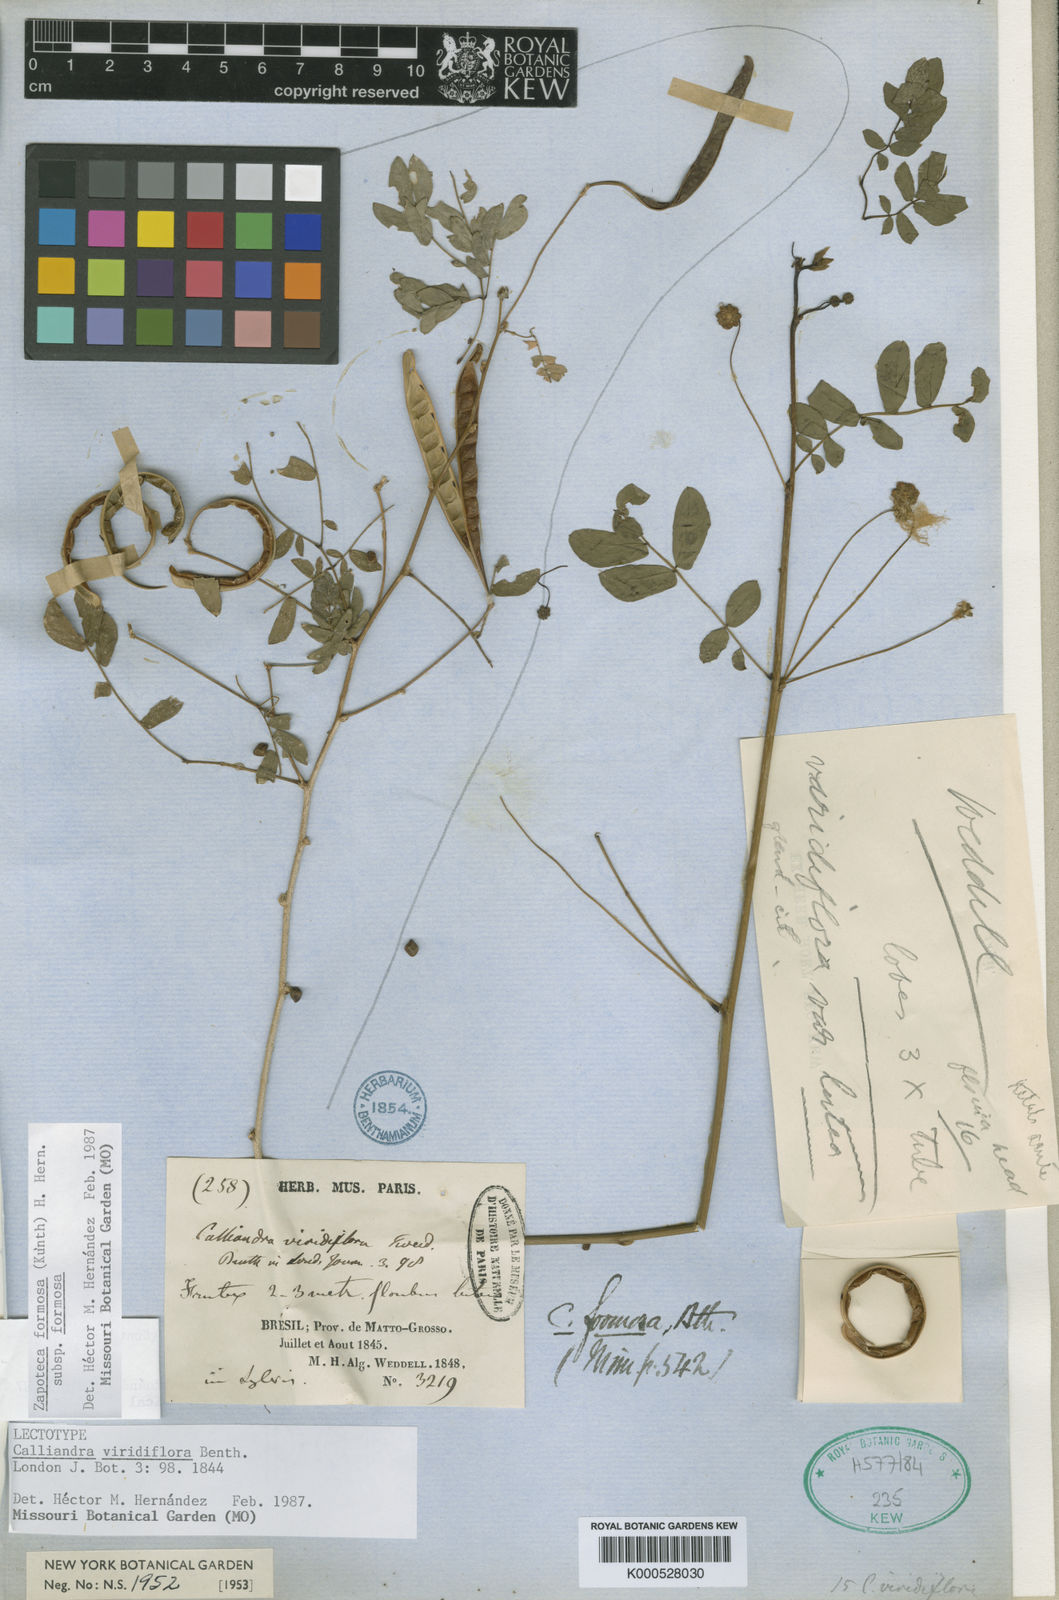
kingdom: Plantae
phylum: Tracheophyta
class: Magnoliopsida
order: Fabales
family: Fabaceae
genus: Zapoteca
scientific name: Zapoteca formosa
